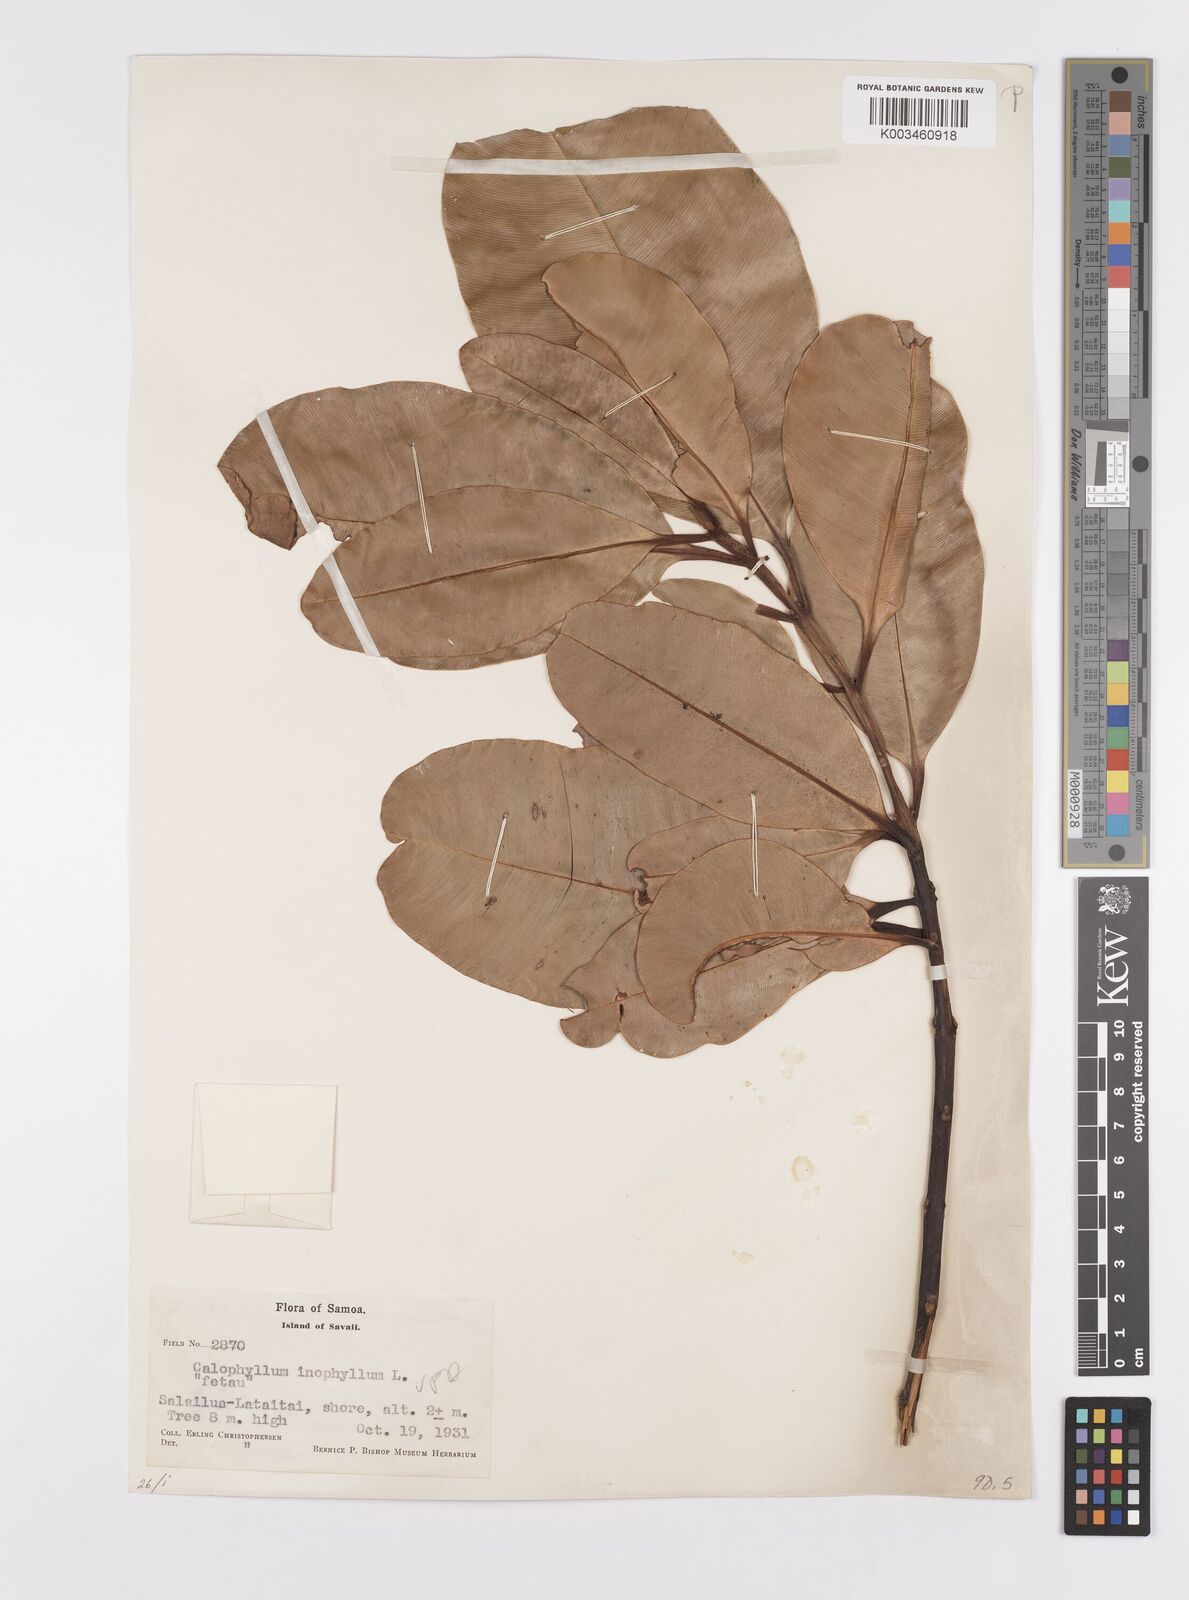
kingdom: Plantae
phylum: Tracheophyta
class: Magnoliopsida
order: Malpighiales
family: Calophyllaceae
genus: Calophyllum
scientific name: Calophyllum inophyllum
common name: Alexandrian laurel
